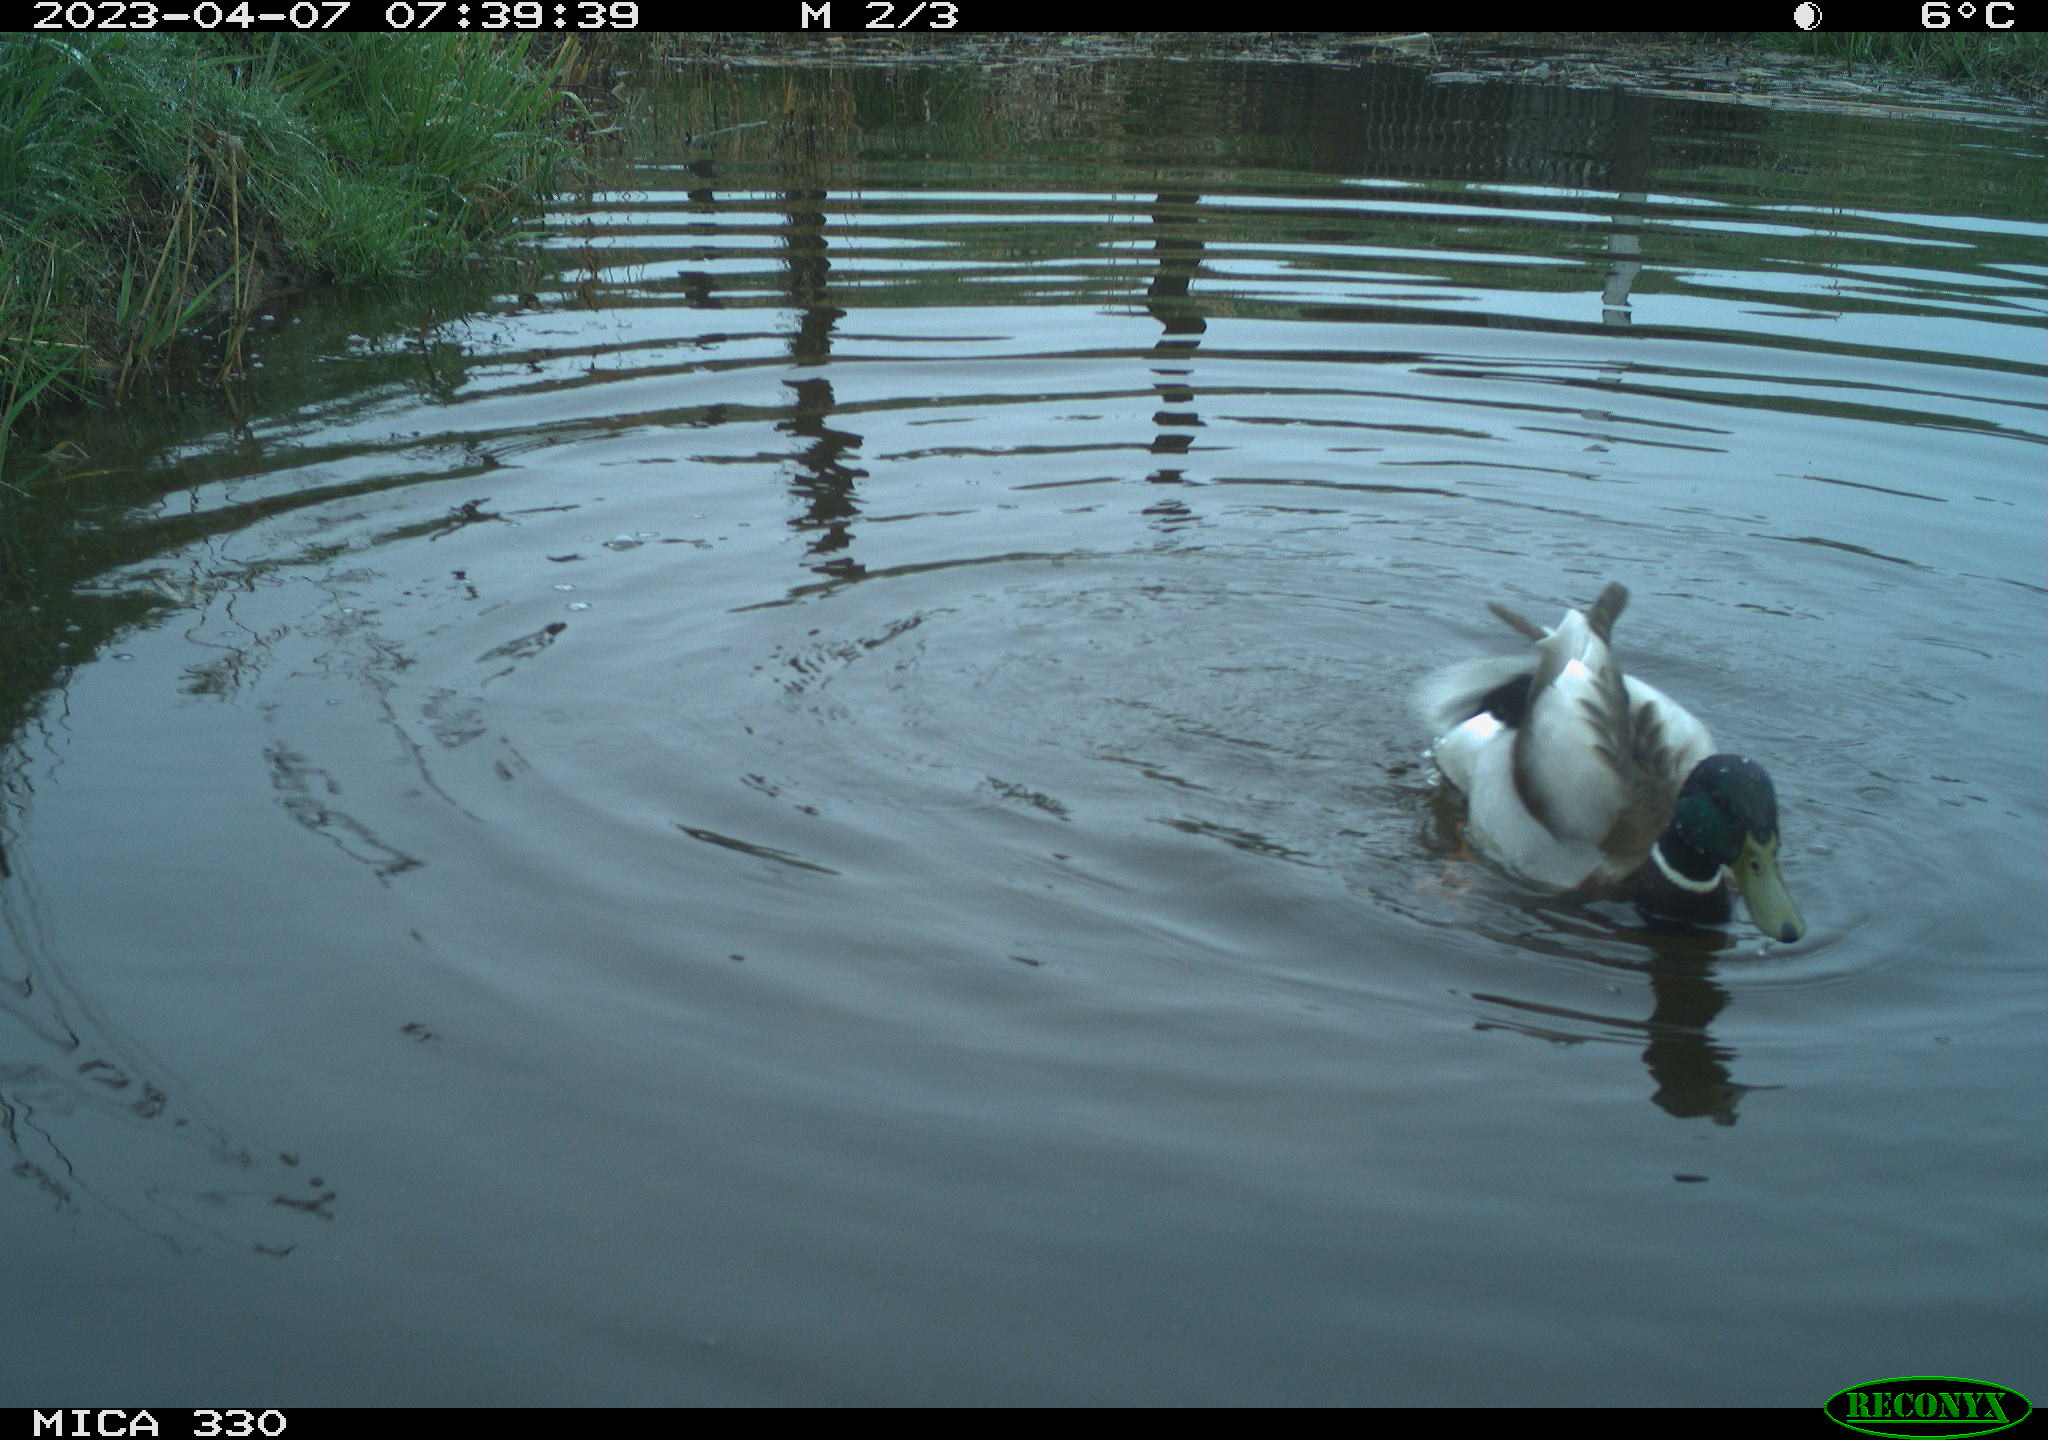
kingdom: Animalia
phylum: Chordata
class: Aves
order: Anseriformes
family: Anatidae
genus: Anas
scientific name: Anas
